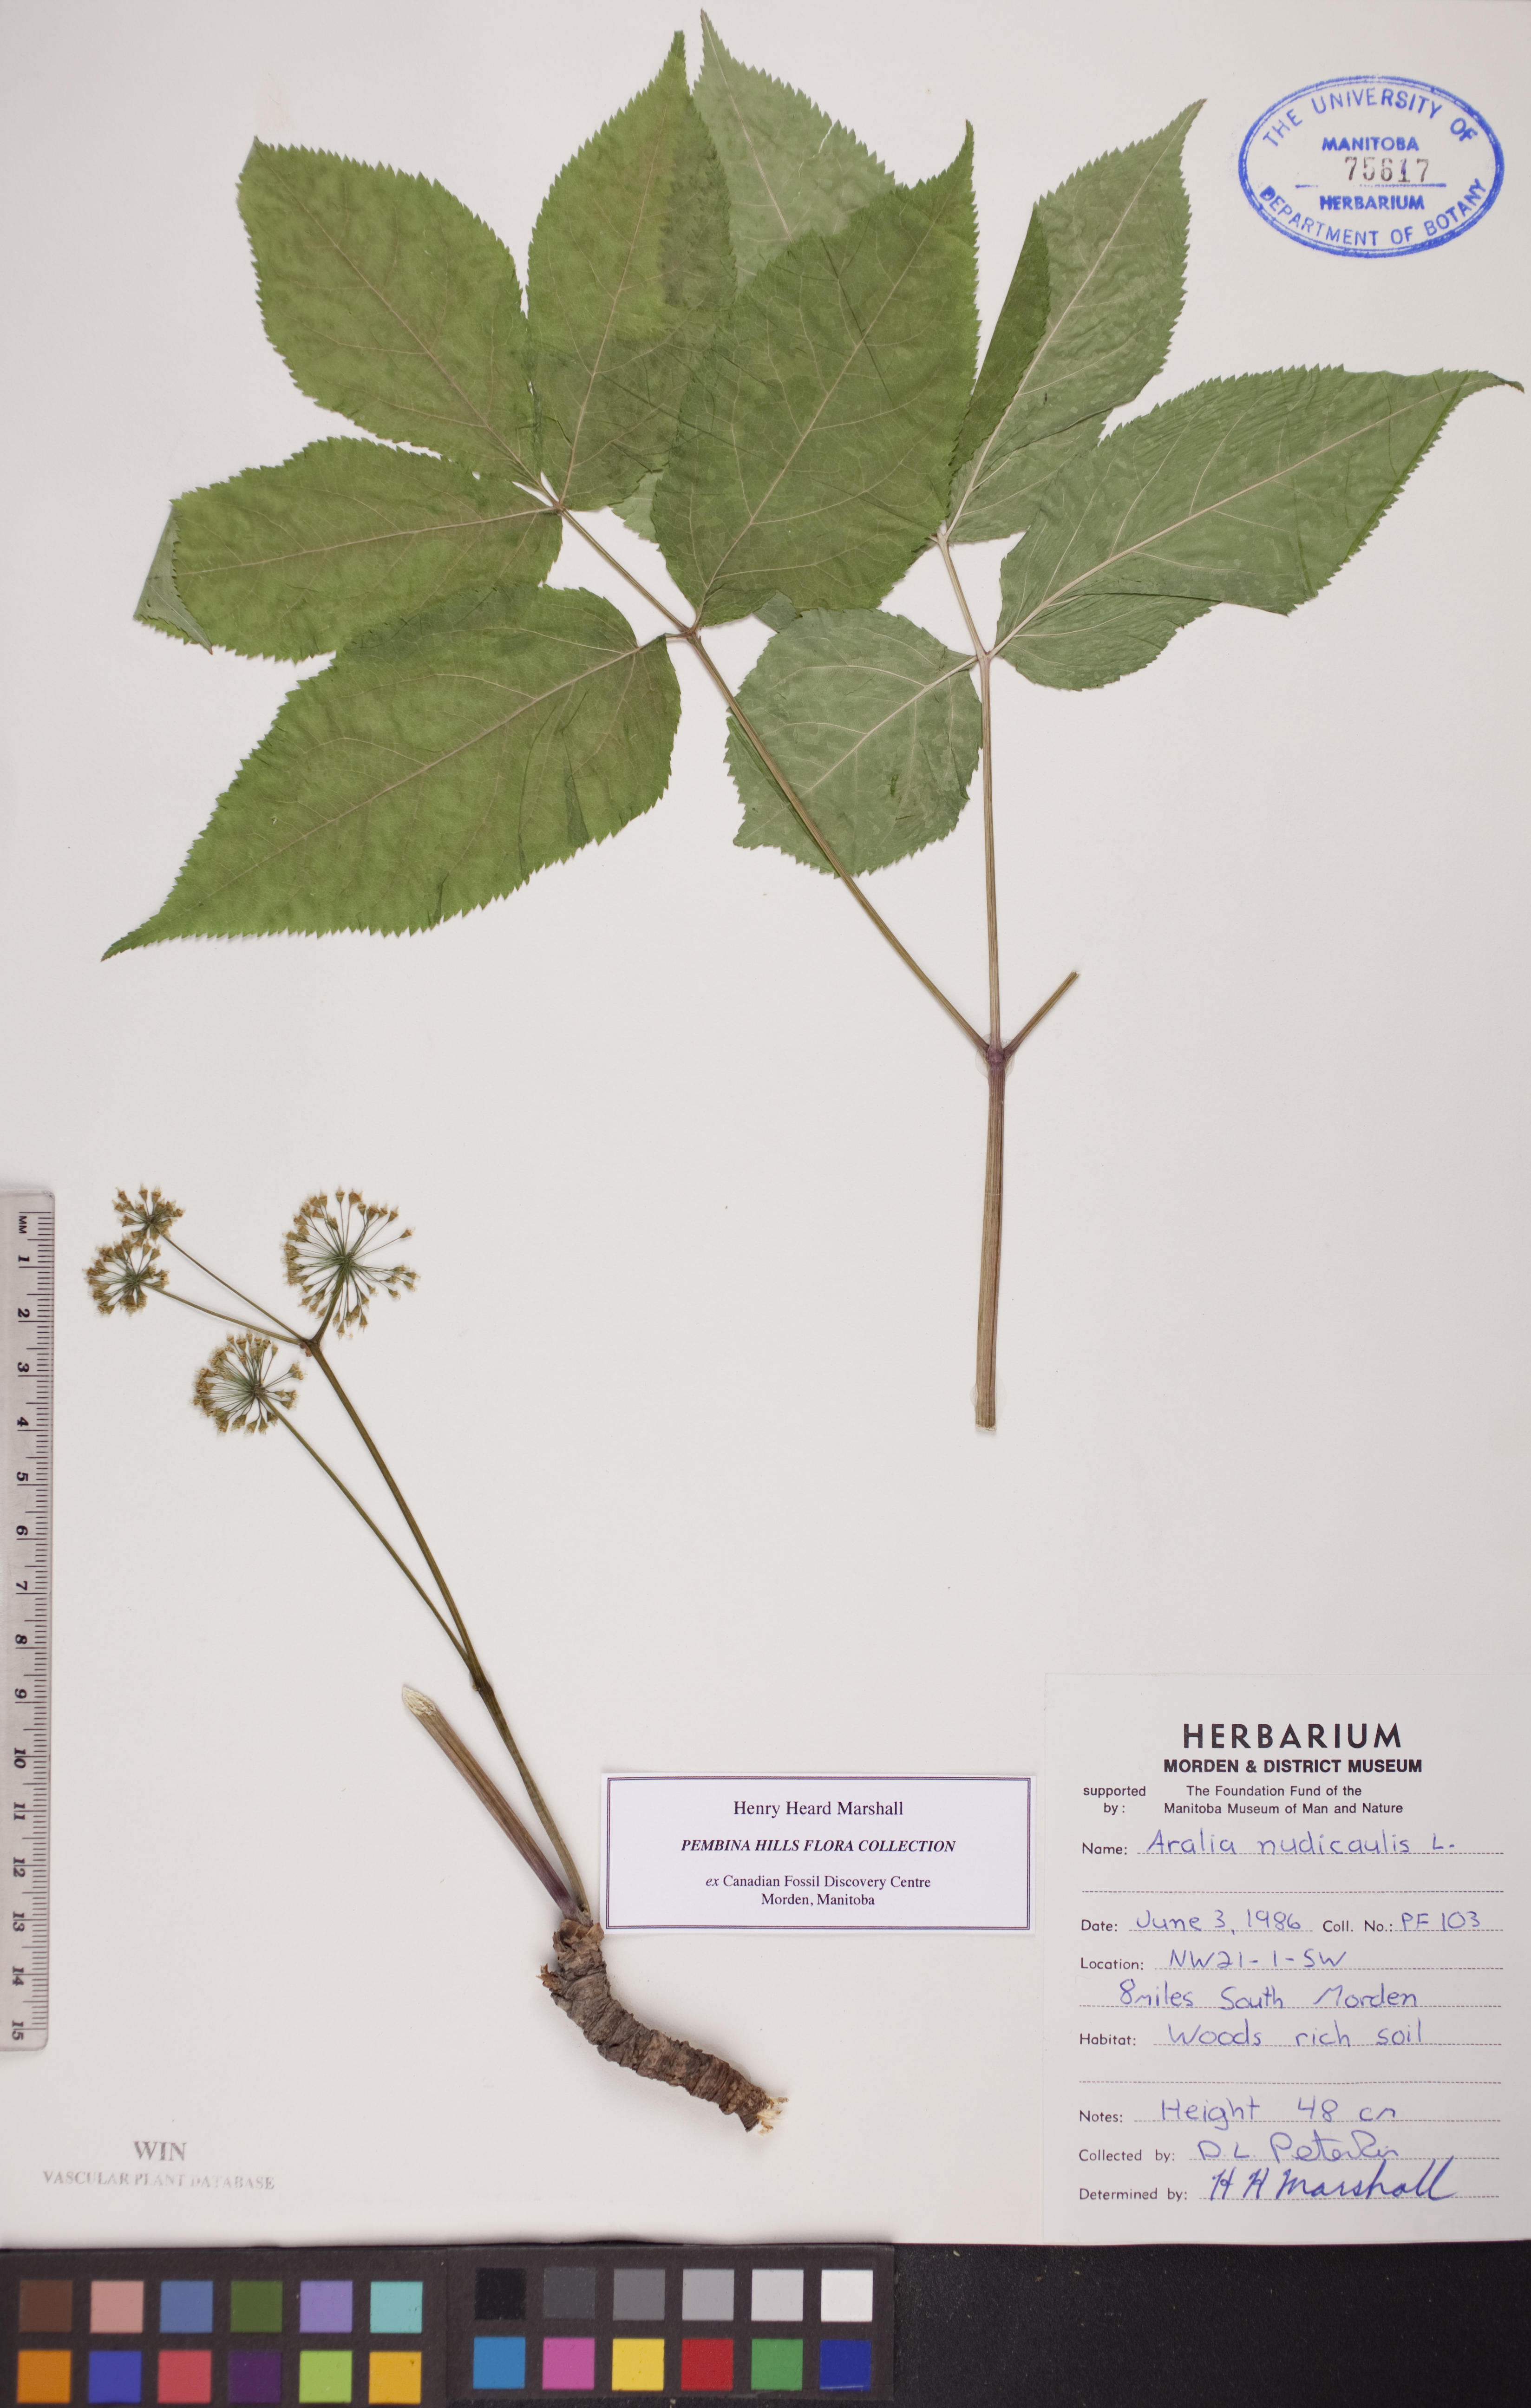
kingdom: Plantae
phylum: Tracheophyta
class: Magnoliopsida
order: Apiales
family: Araliaceae
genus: Aralia
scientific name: Aralia nudicaulis
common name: Wild sarsaparilla
